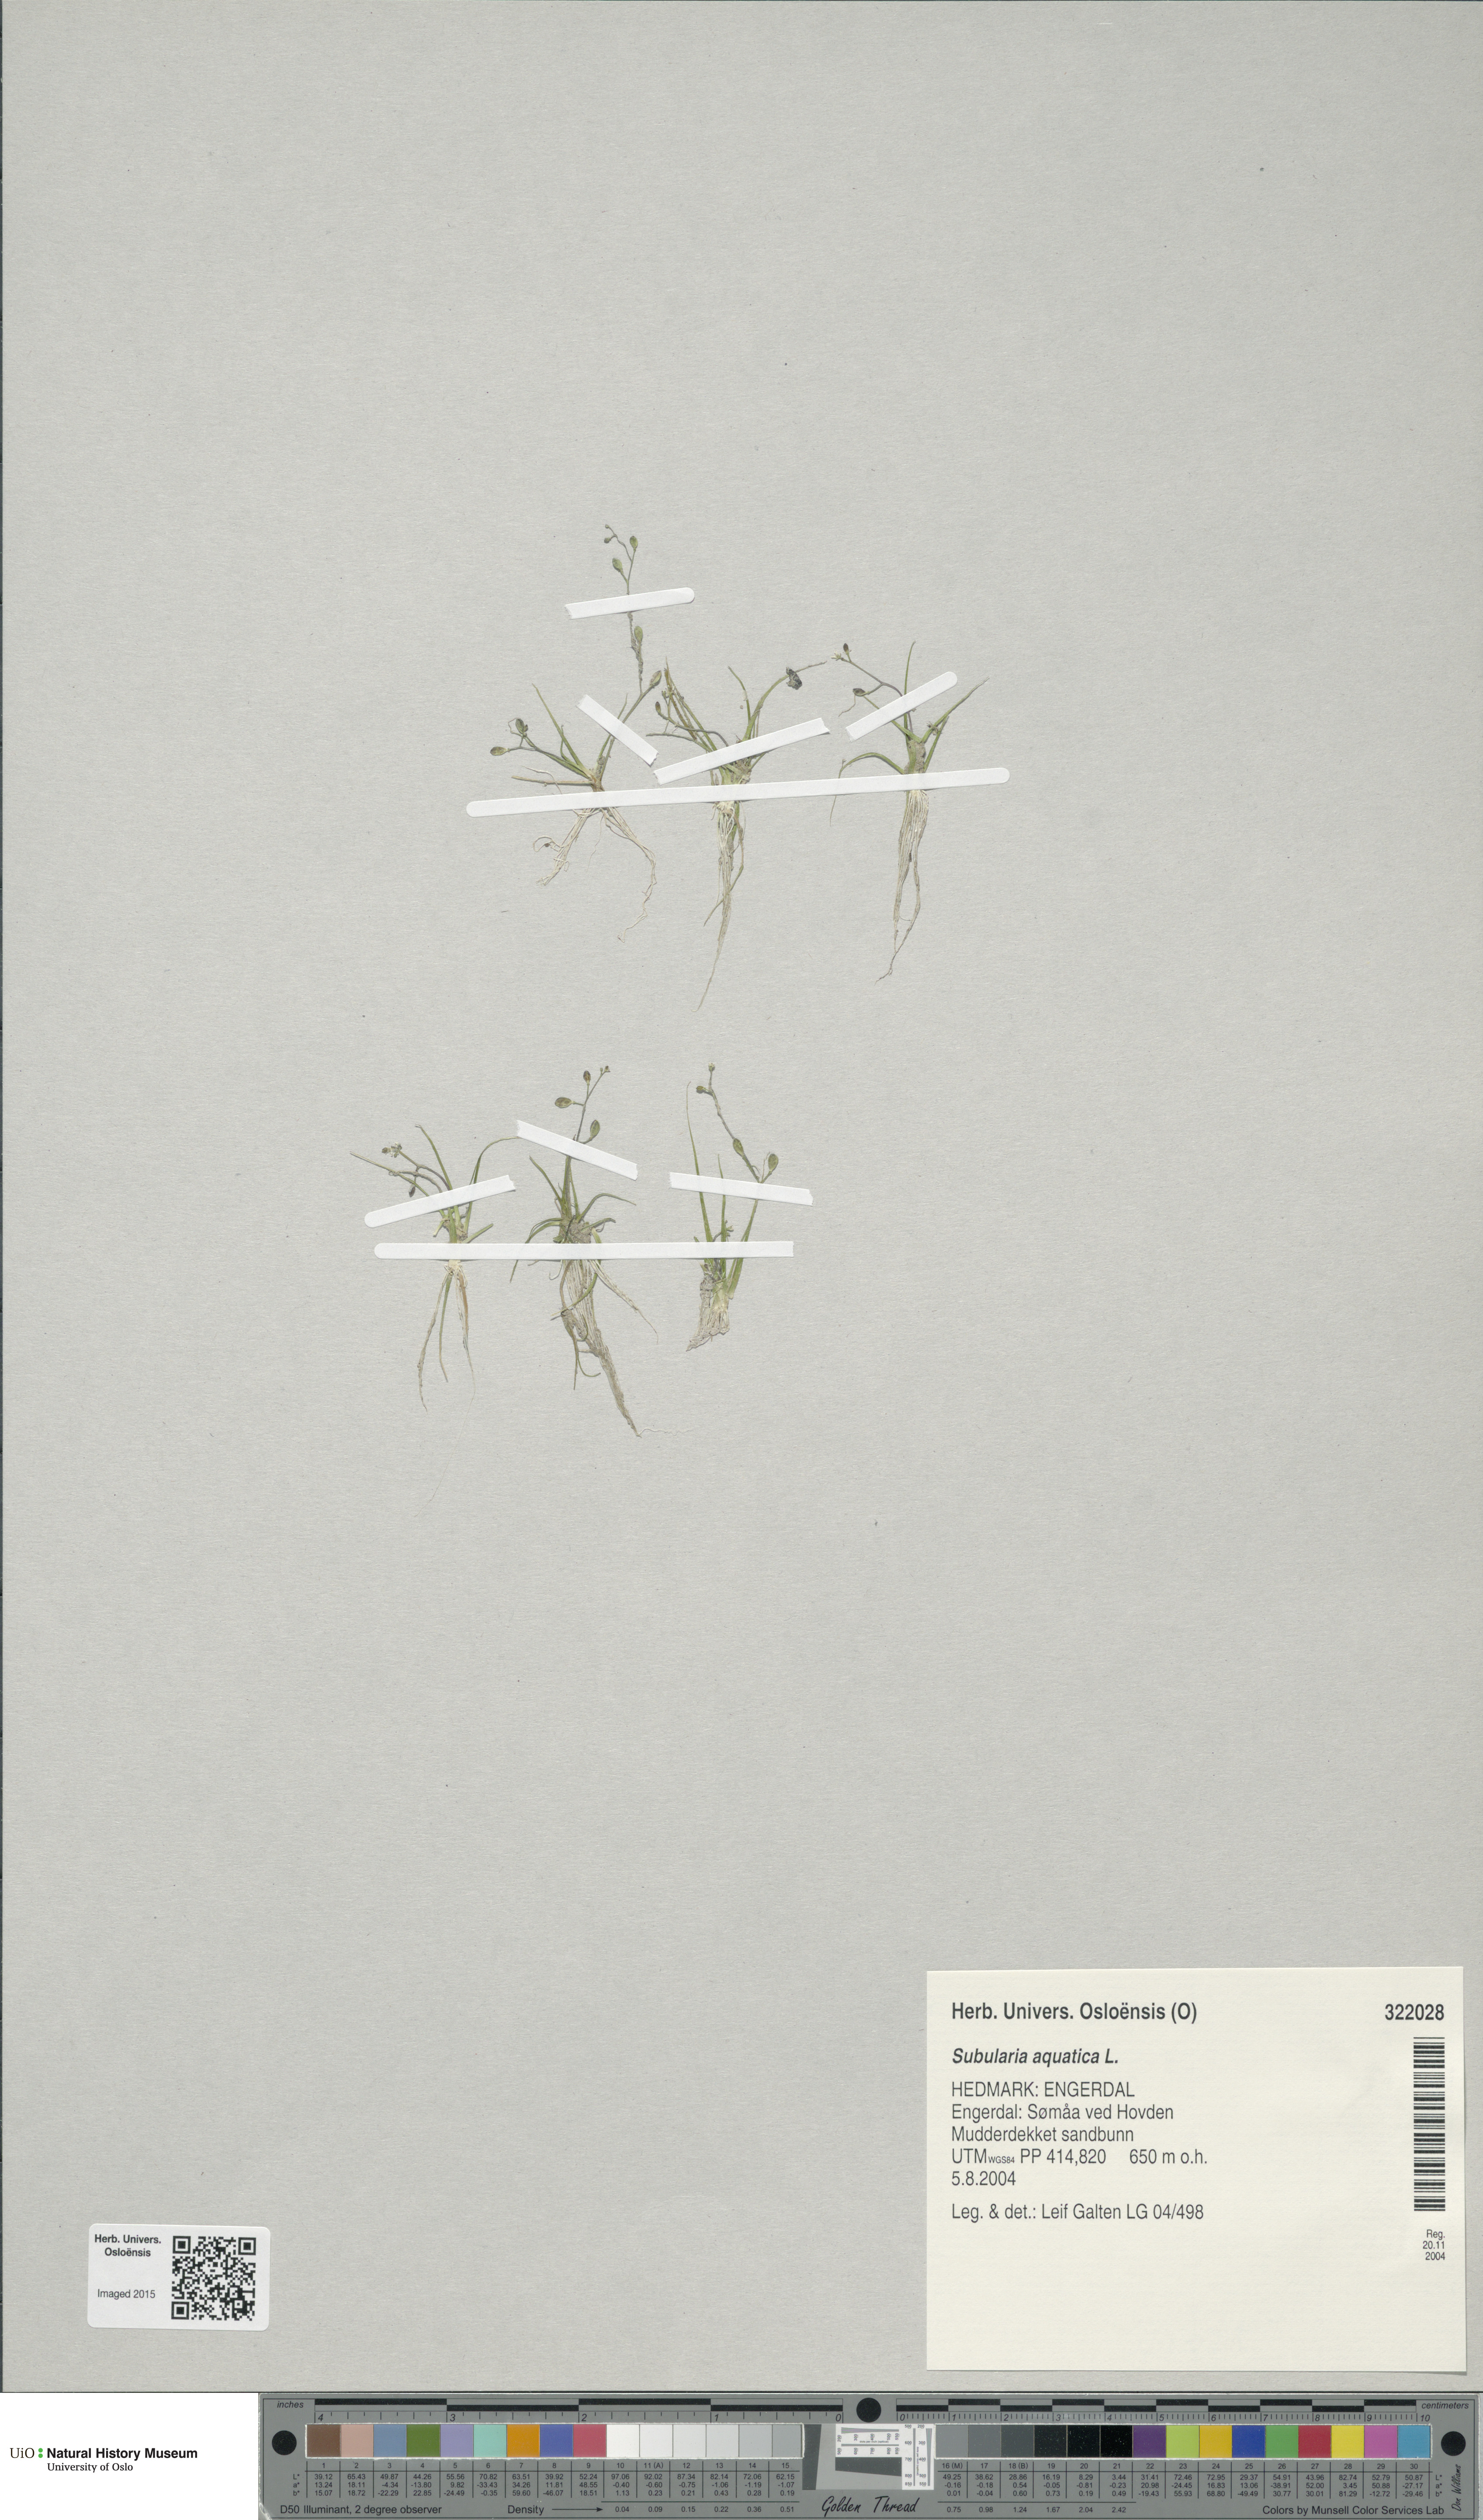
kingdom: Plantae
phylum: Tracheophyta
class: Magnoliopsida
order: Brassicales
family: Brassicaceae
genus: Subularia
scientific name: Subularia aquatica
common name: Awlwort
